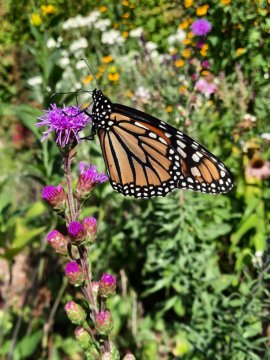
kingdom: Animalia
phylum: Arthropoda
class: Insecta
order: Lepidoptera
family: Nymphalidae
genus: Danaus
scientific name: Danaus plexippus
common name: Monarch
